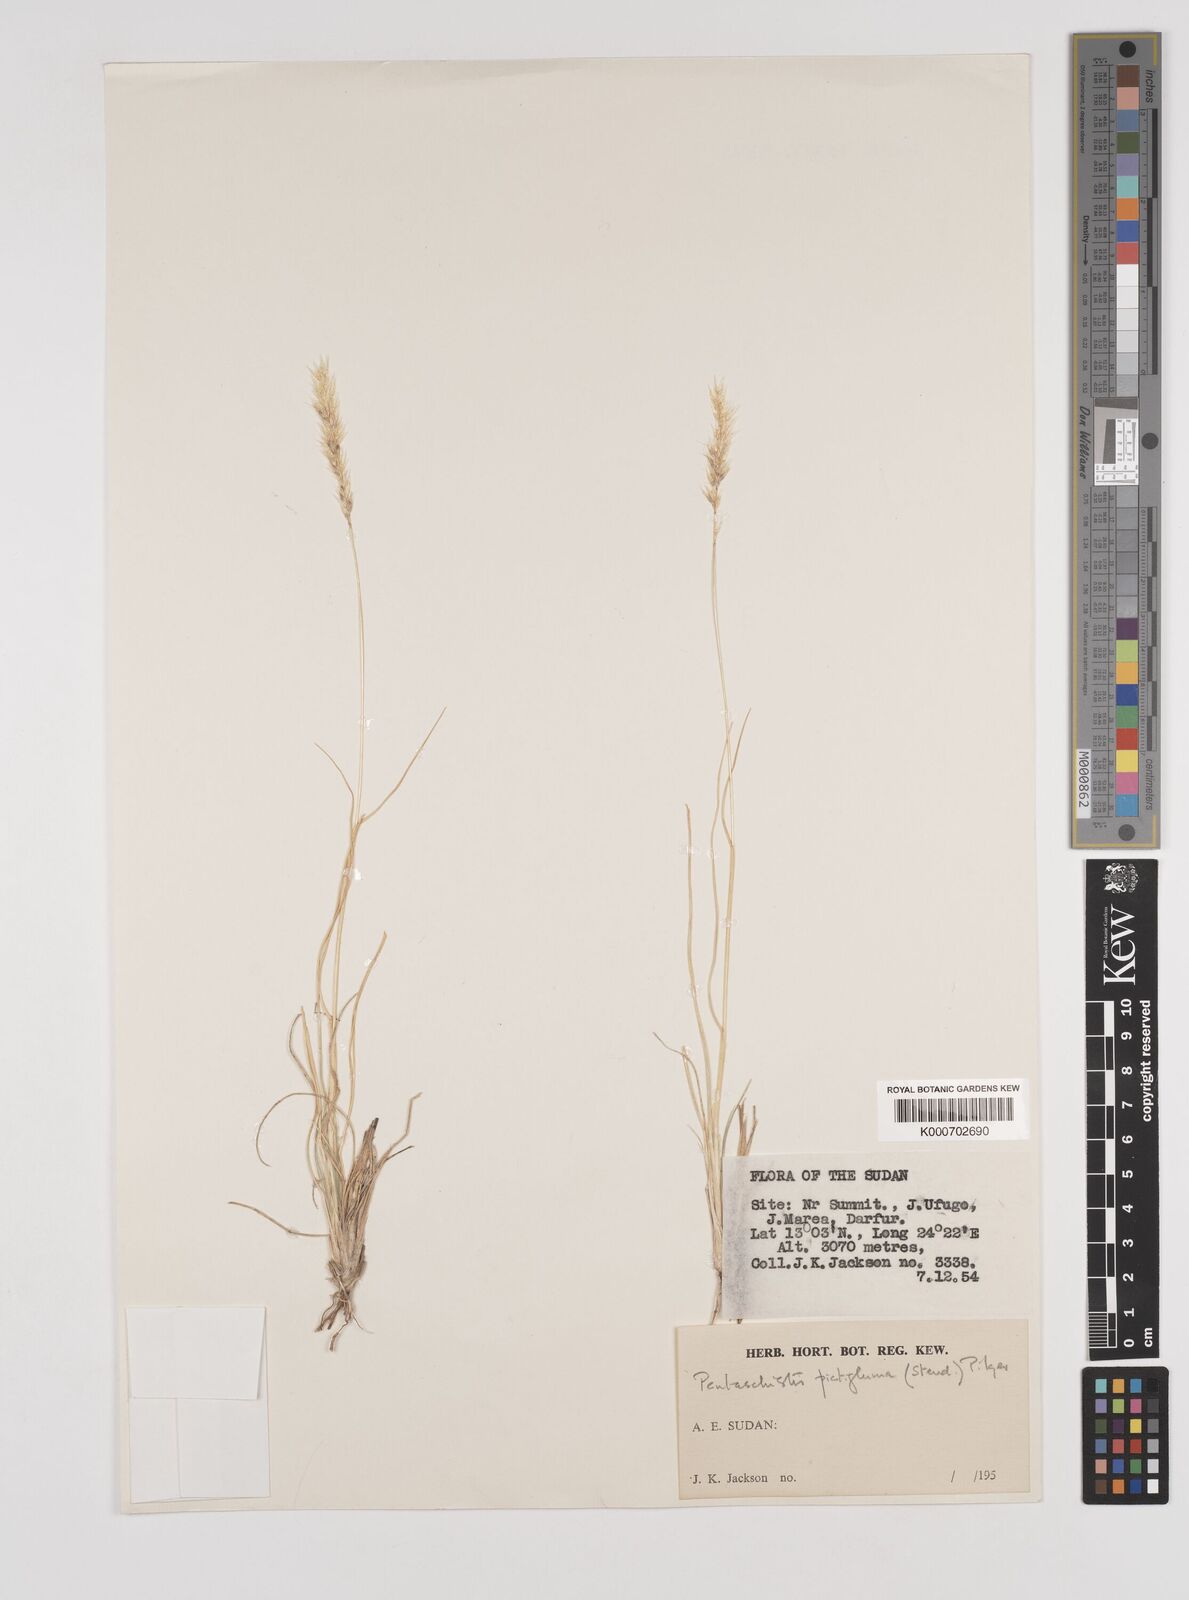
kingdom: Plantae
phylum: Tracheophyta
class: Liliopsida
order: Poales
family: Poaceae
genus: Pentameris
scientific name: Pentameris pictigluma
